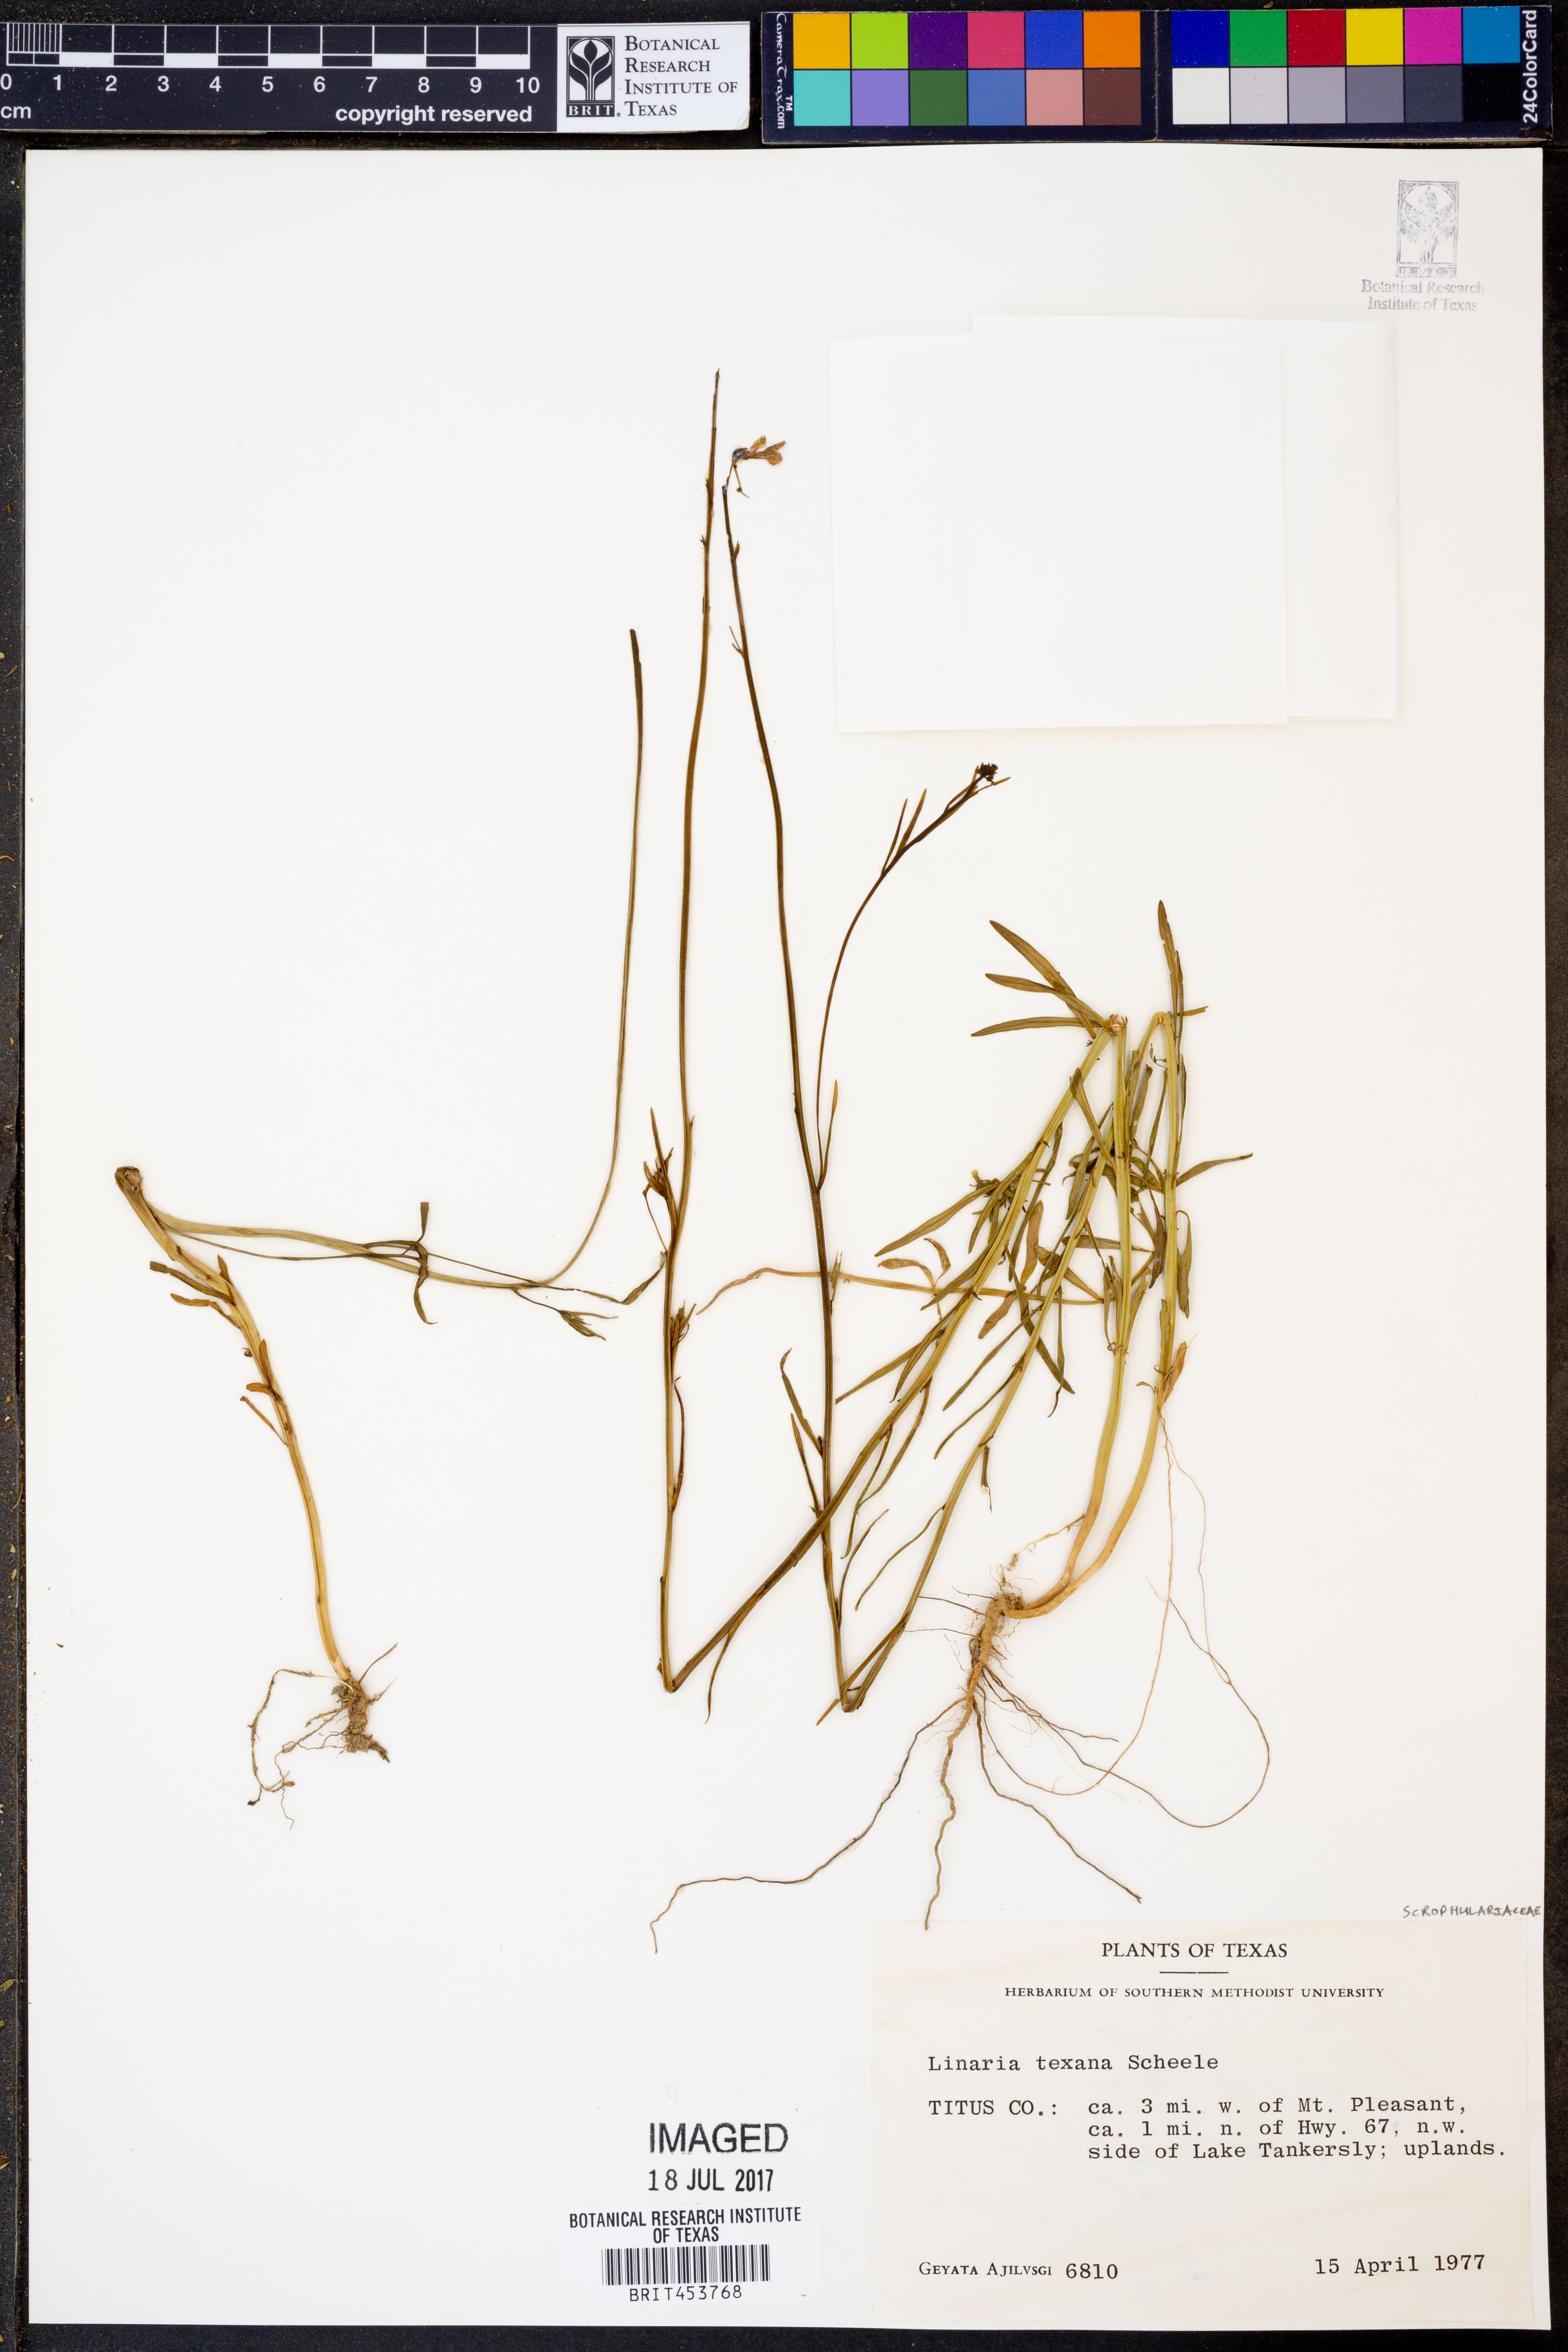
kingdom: Plantae
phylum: Tracheophyta
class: Magnoliopsida
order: Lamiales
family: Plantaginaceae
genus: Nuttallanthus
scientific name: Nuttallanthus texanus
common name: Texas toadflax
